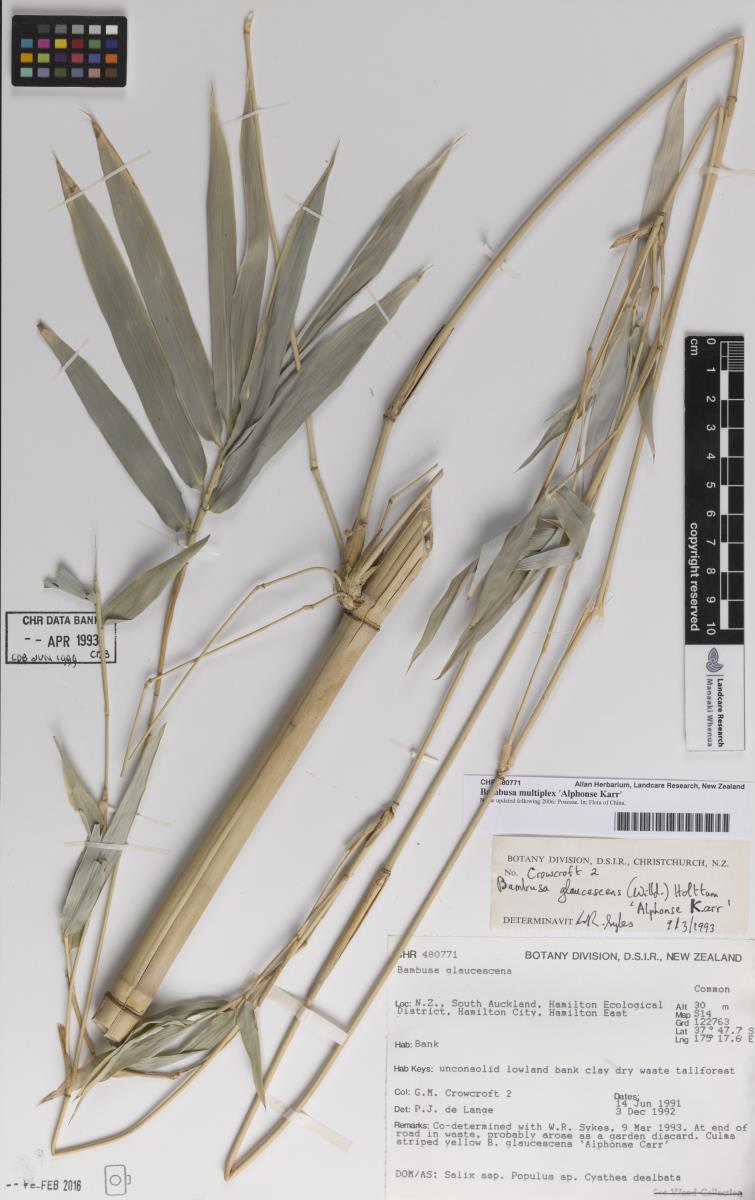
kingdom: Plantae
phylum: Tracheophyta
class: Liliopsida
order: Poales
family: Poaceae
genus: Bambusa
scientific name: Bambusa multiplex
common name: Hedge bamboo
